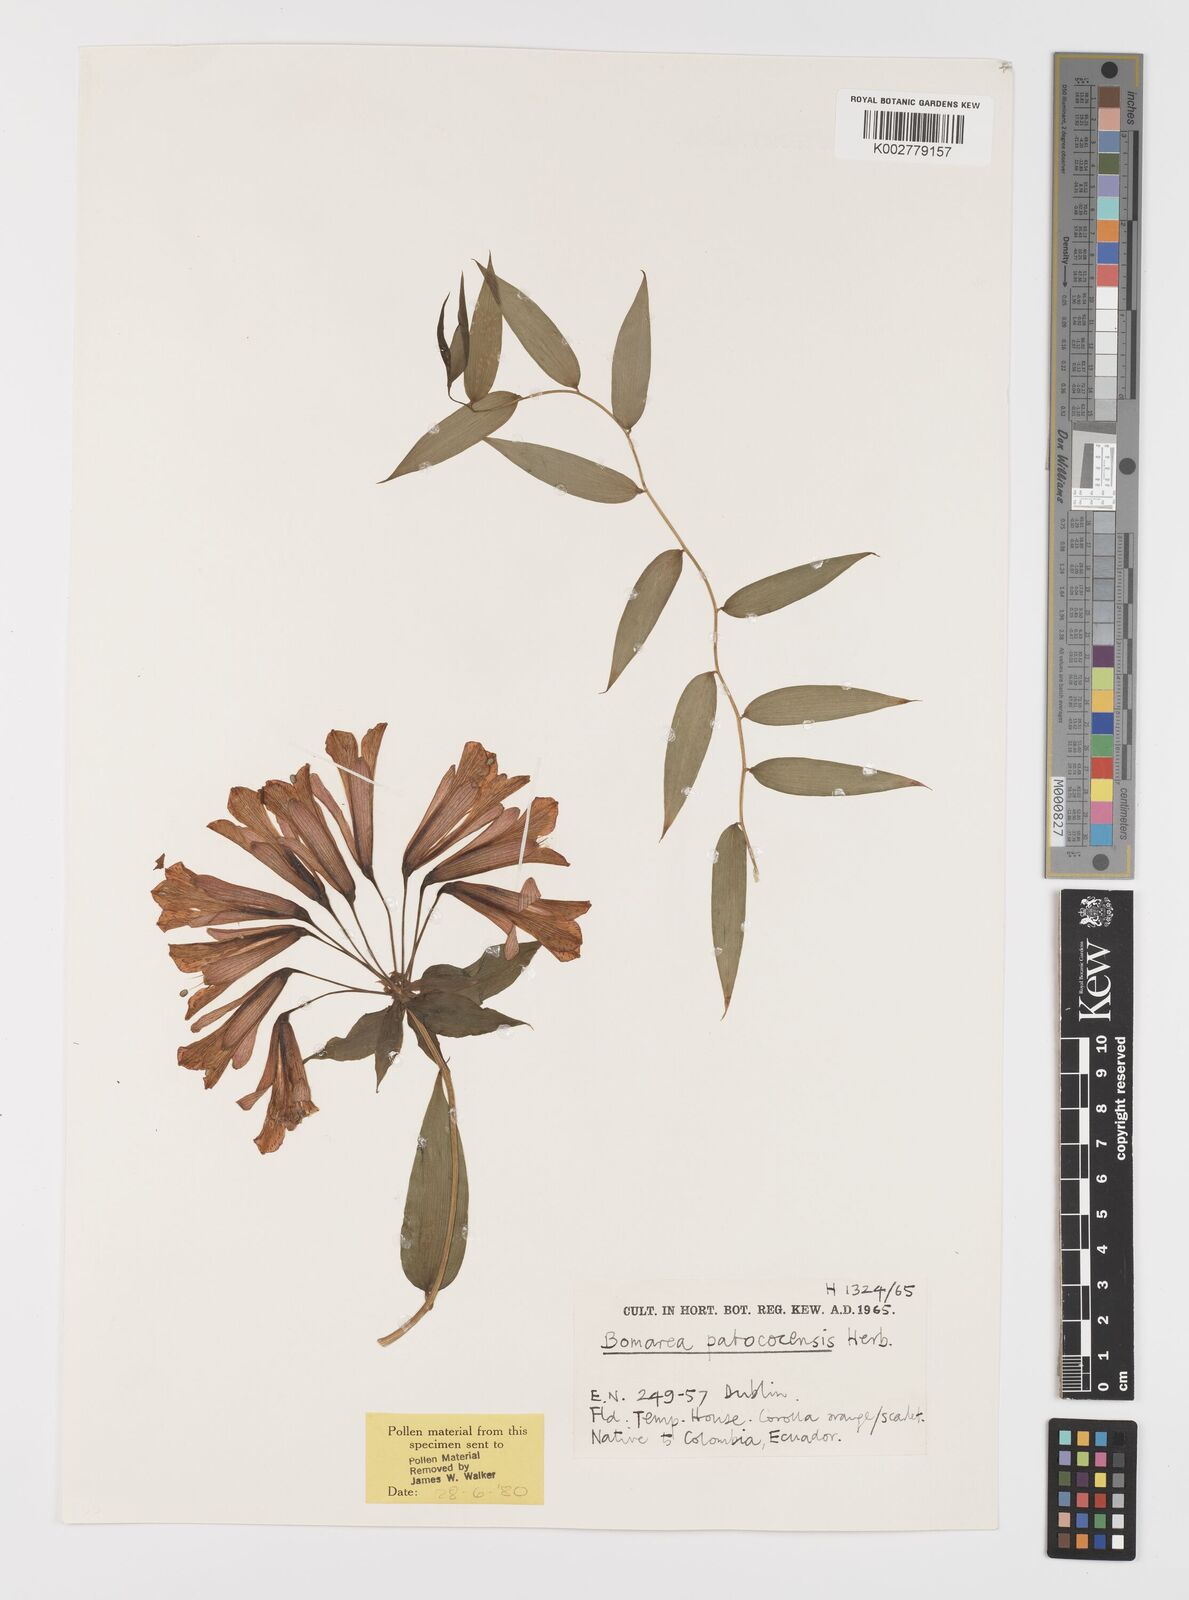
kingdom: Plantae
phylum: Tracheophyta
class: Liliopsida
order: Liliales
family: Alstroemeriaceae
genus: Bomarea
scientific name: Bomarea patacocensis
